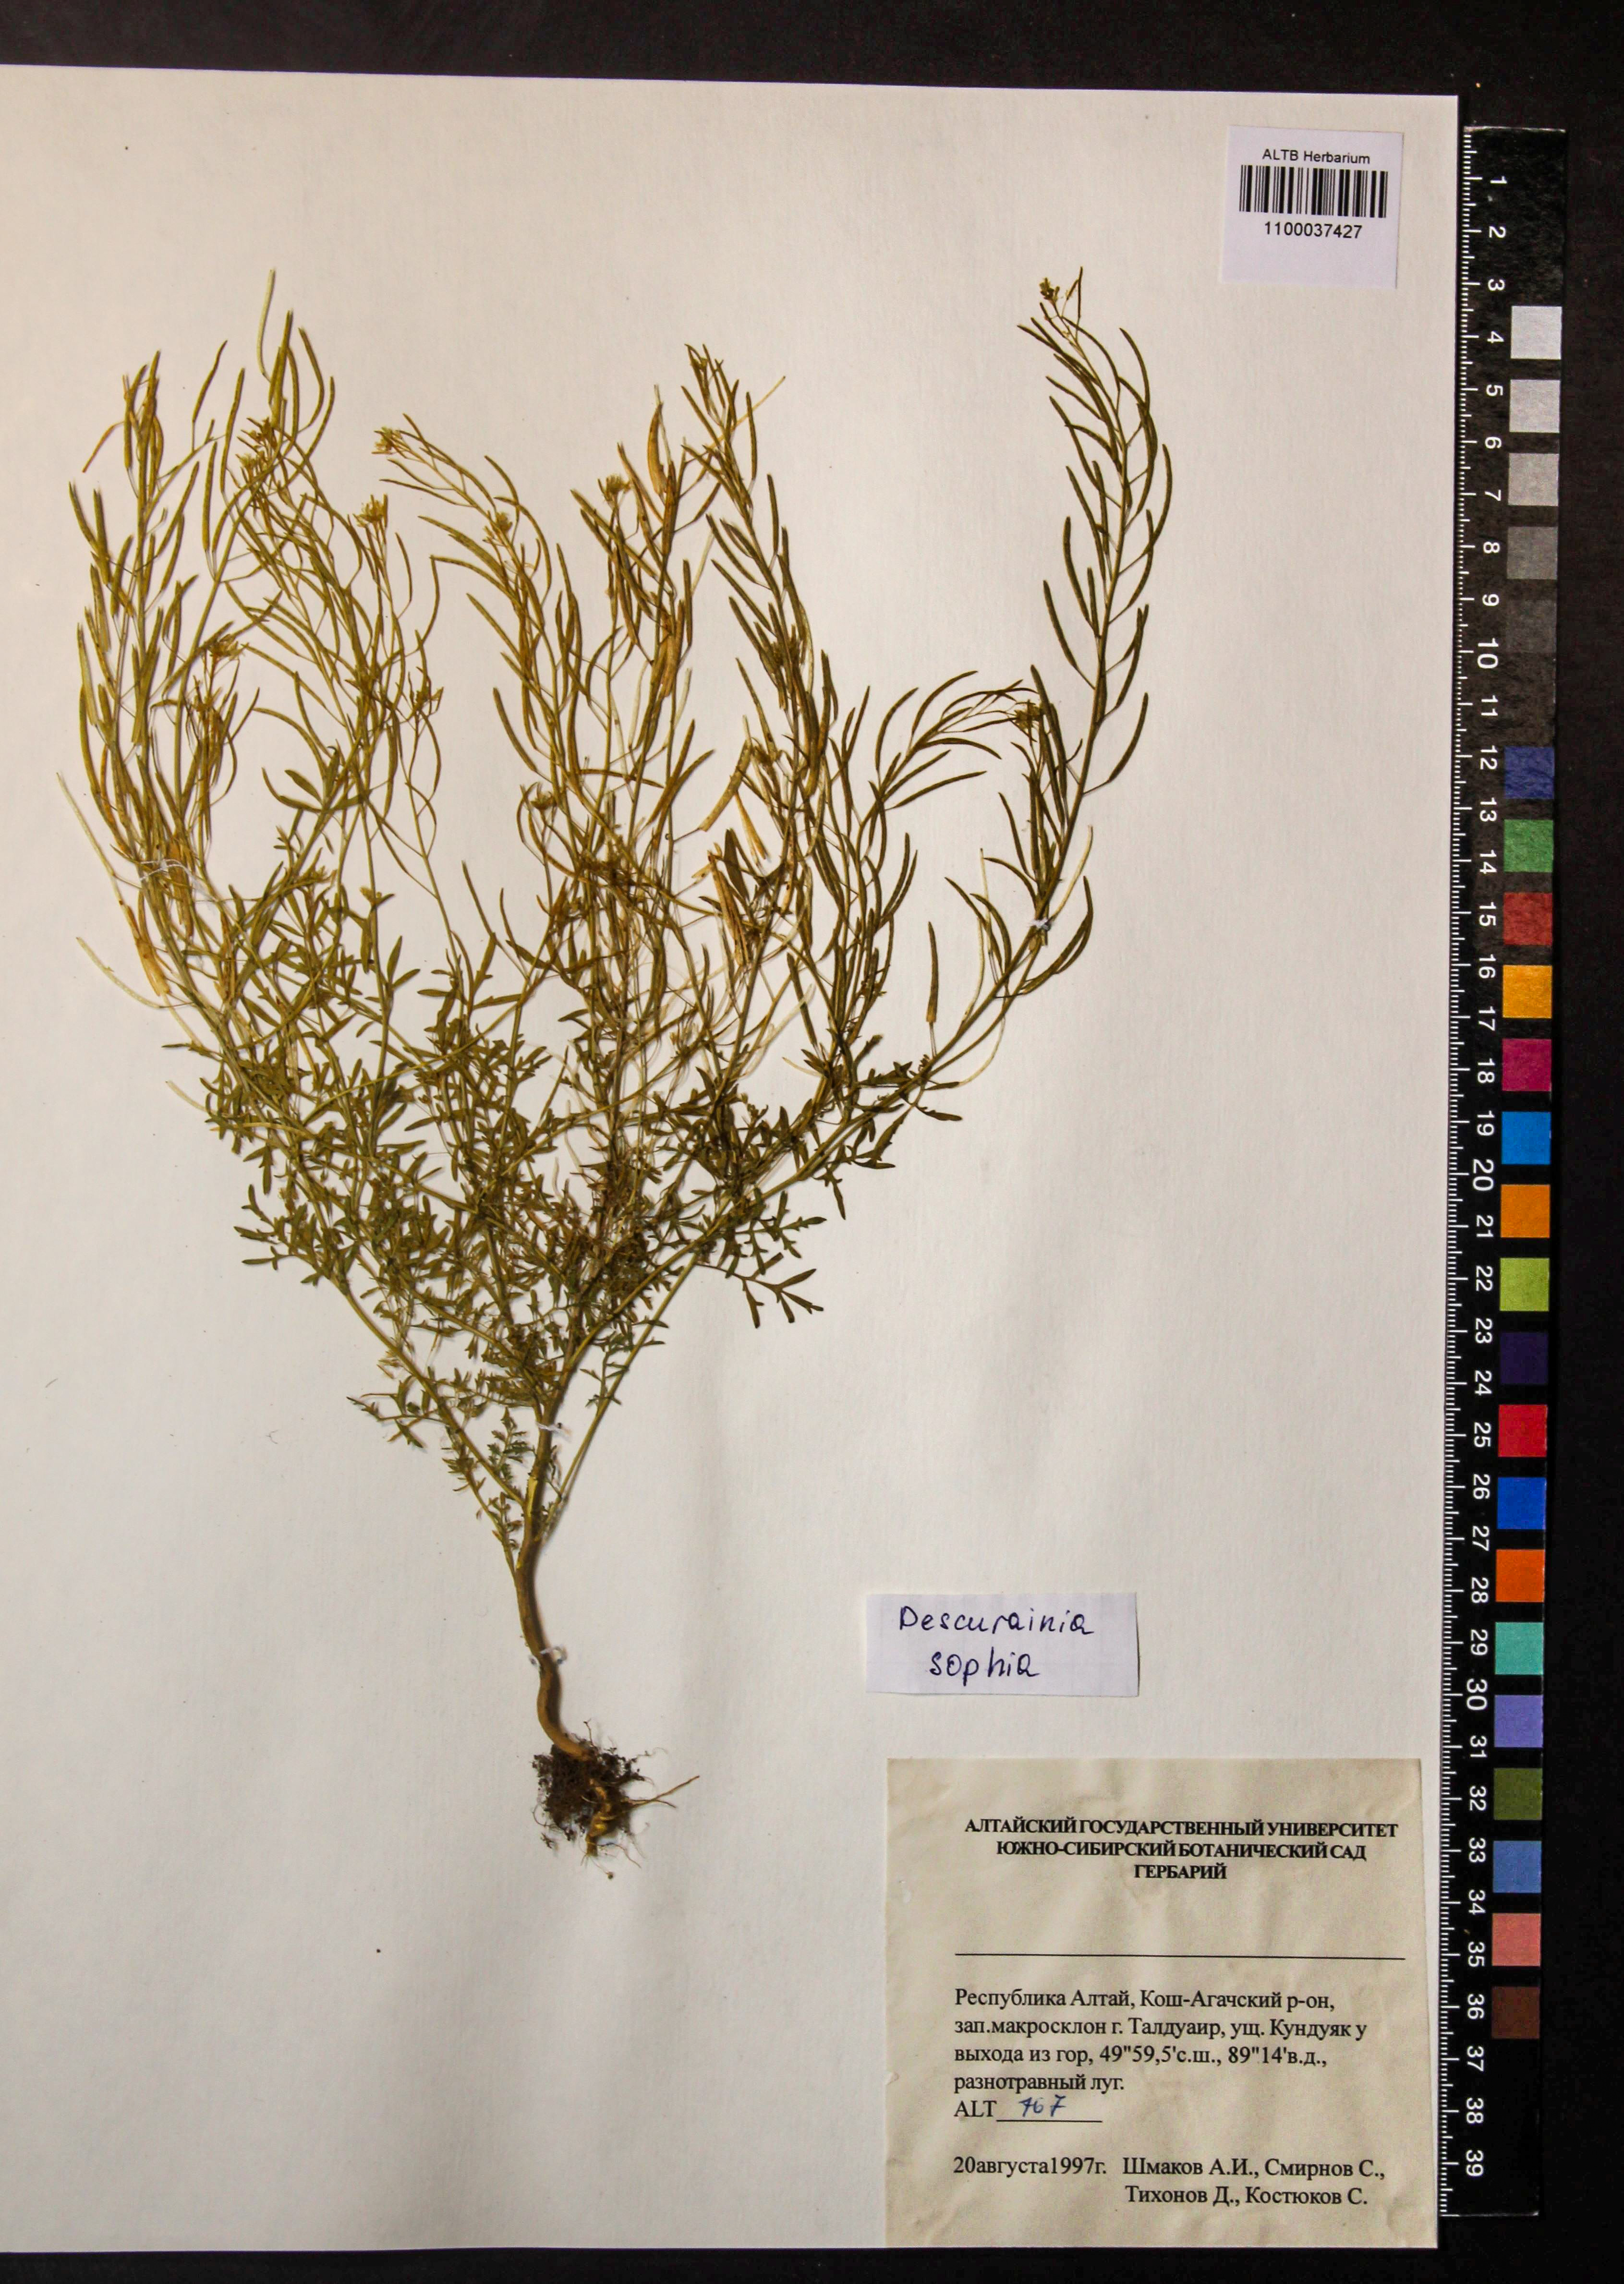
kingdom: Plantae
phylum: Tracheophyta
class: Magnoliopsida
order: Brassicales
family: Brassicaceae
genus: Descurainia
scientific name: Descurainia sophia
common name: Flixweed
